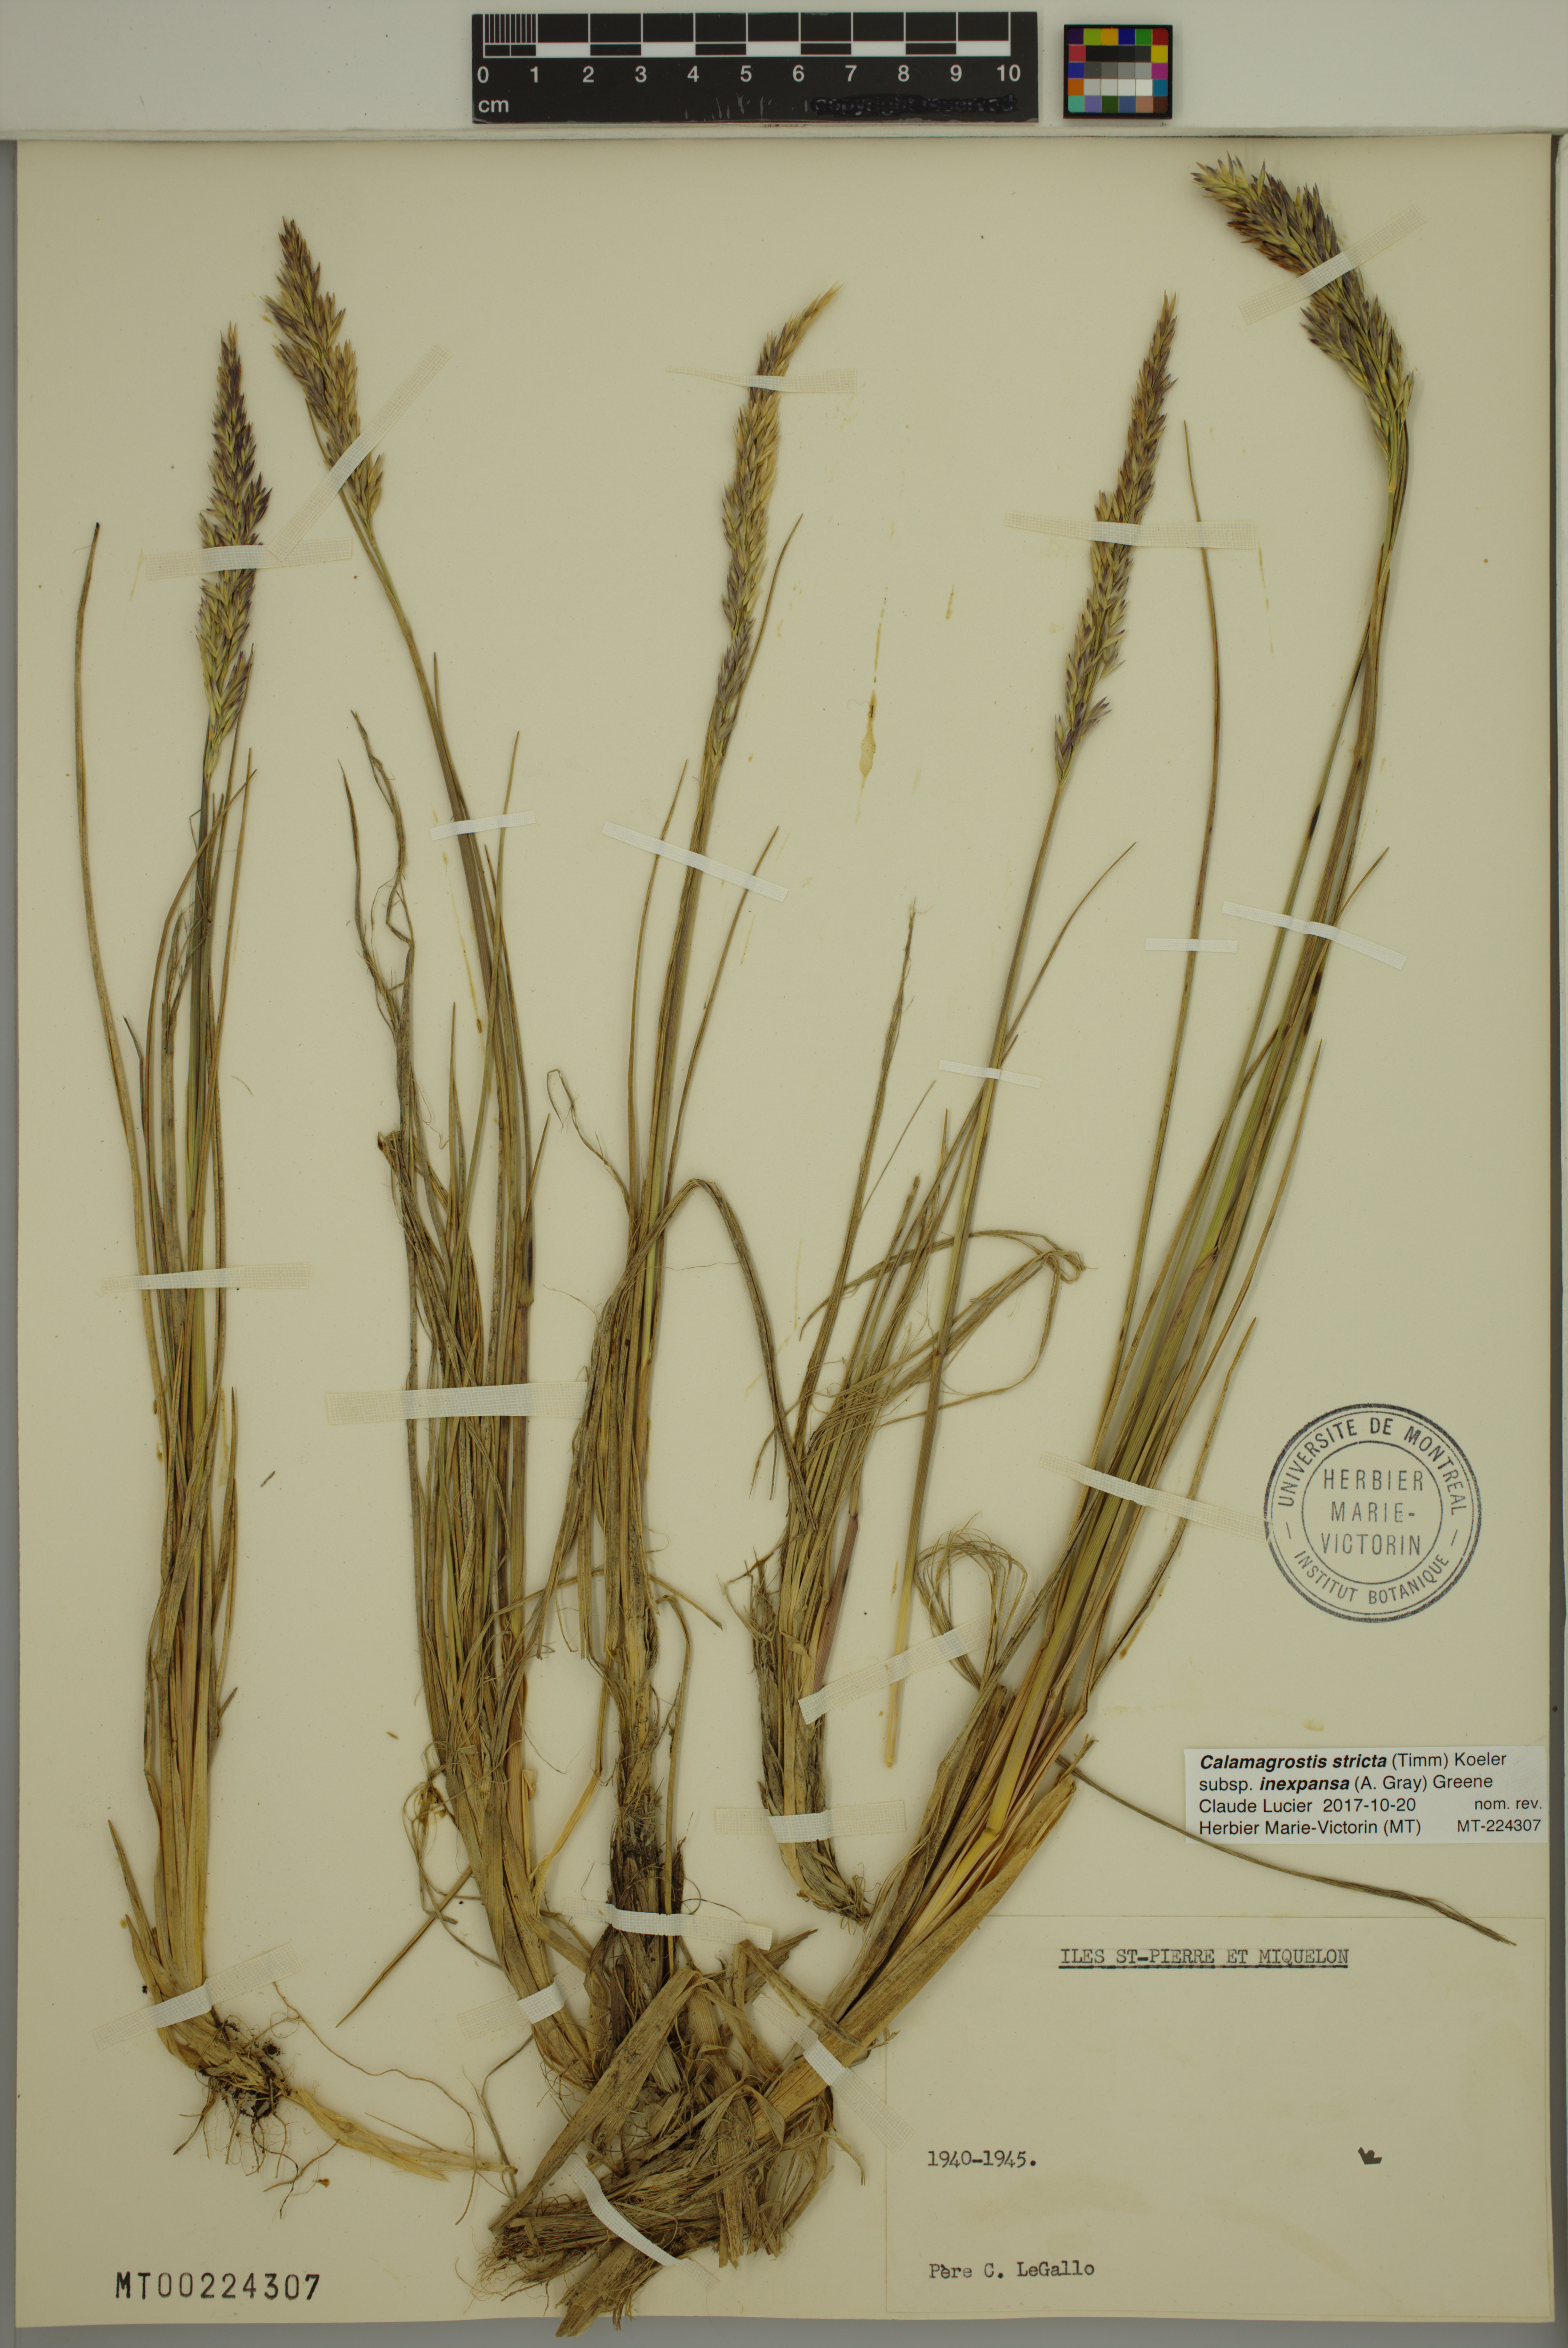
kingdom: Plantae
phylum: Tracheophyta
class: Liliopsida
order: Poales
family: Poaceae
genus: Calamagrostis
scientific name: Calamagrostis inexpansa
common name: Northern reedgrass
